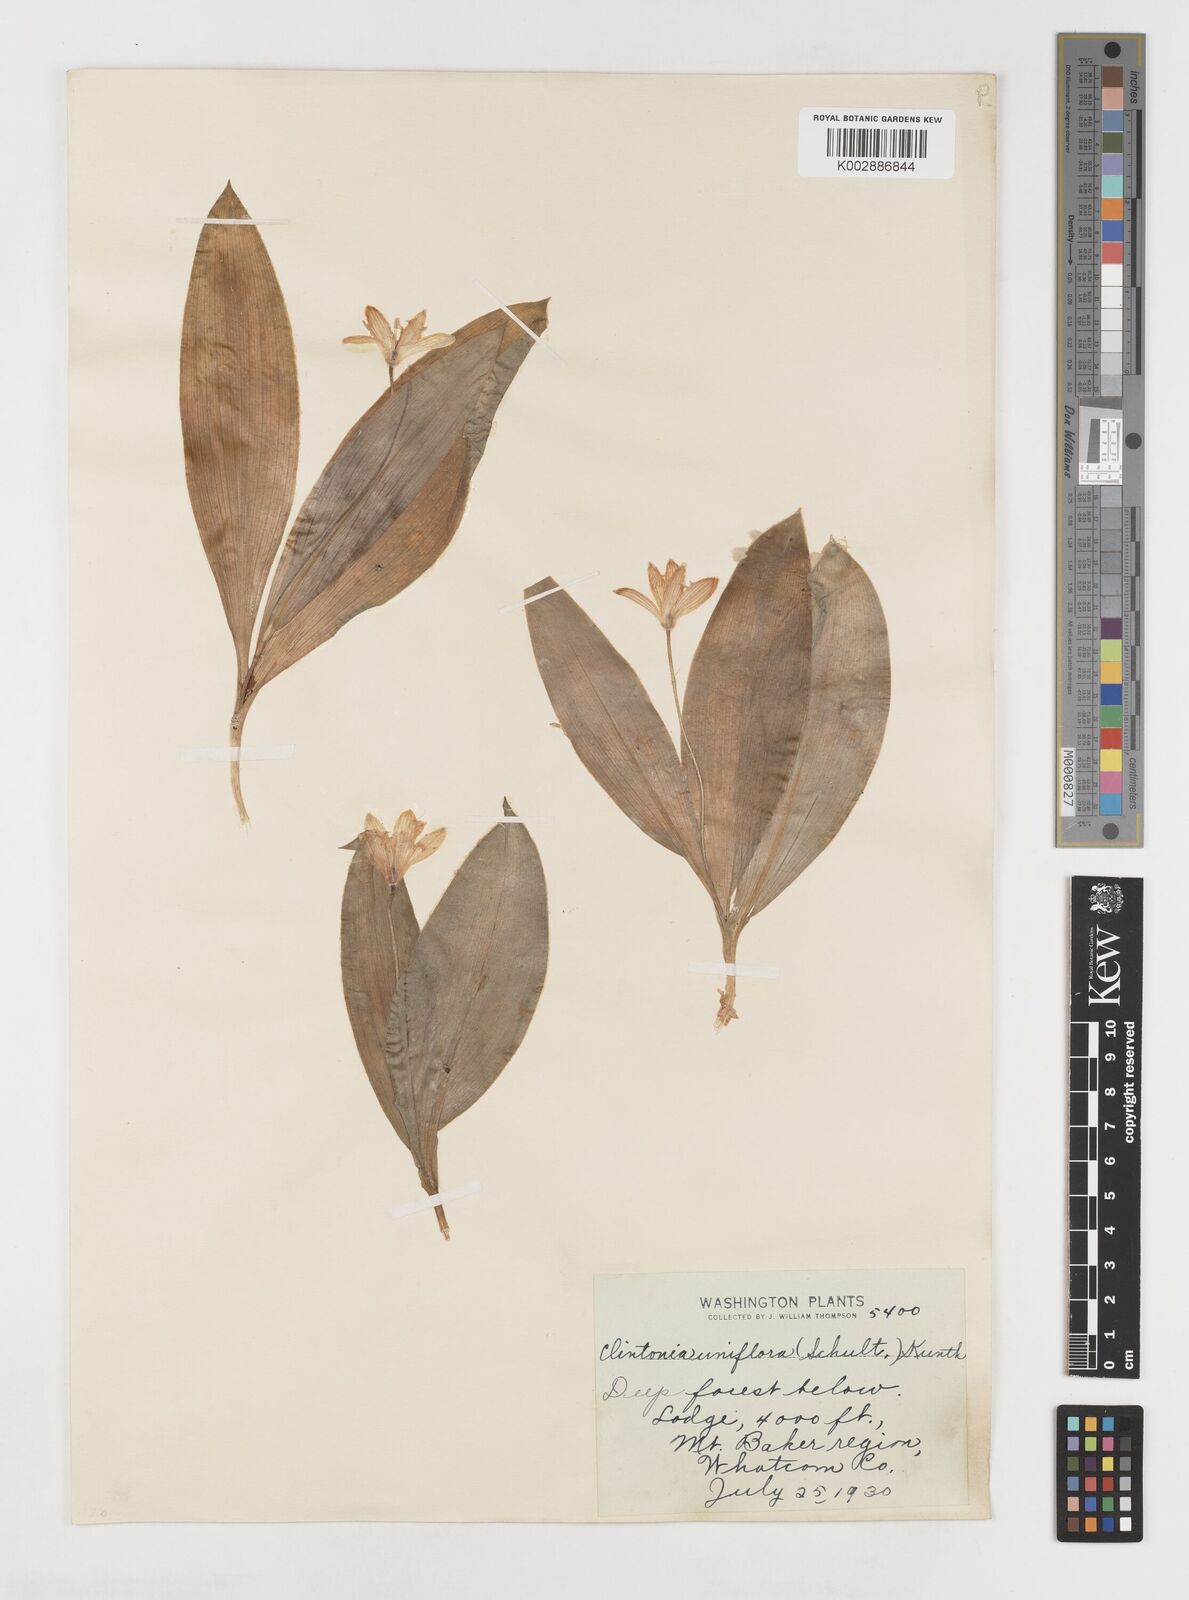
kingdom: Plantae
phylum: Tracheophyta
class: Liliopsida
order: Liliales
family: Liliaceae
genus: Clintonia
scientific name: Clintonia uniflora
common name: Queen's cup
